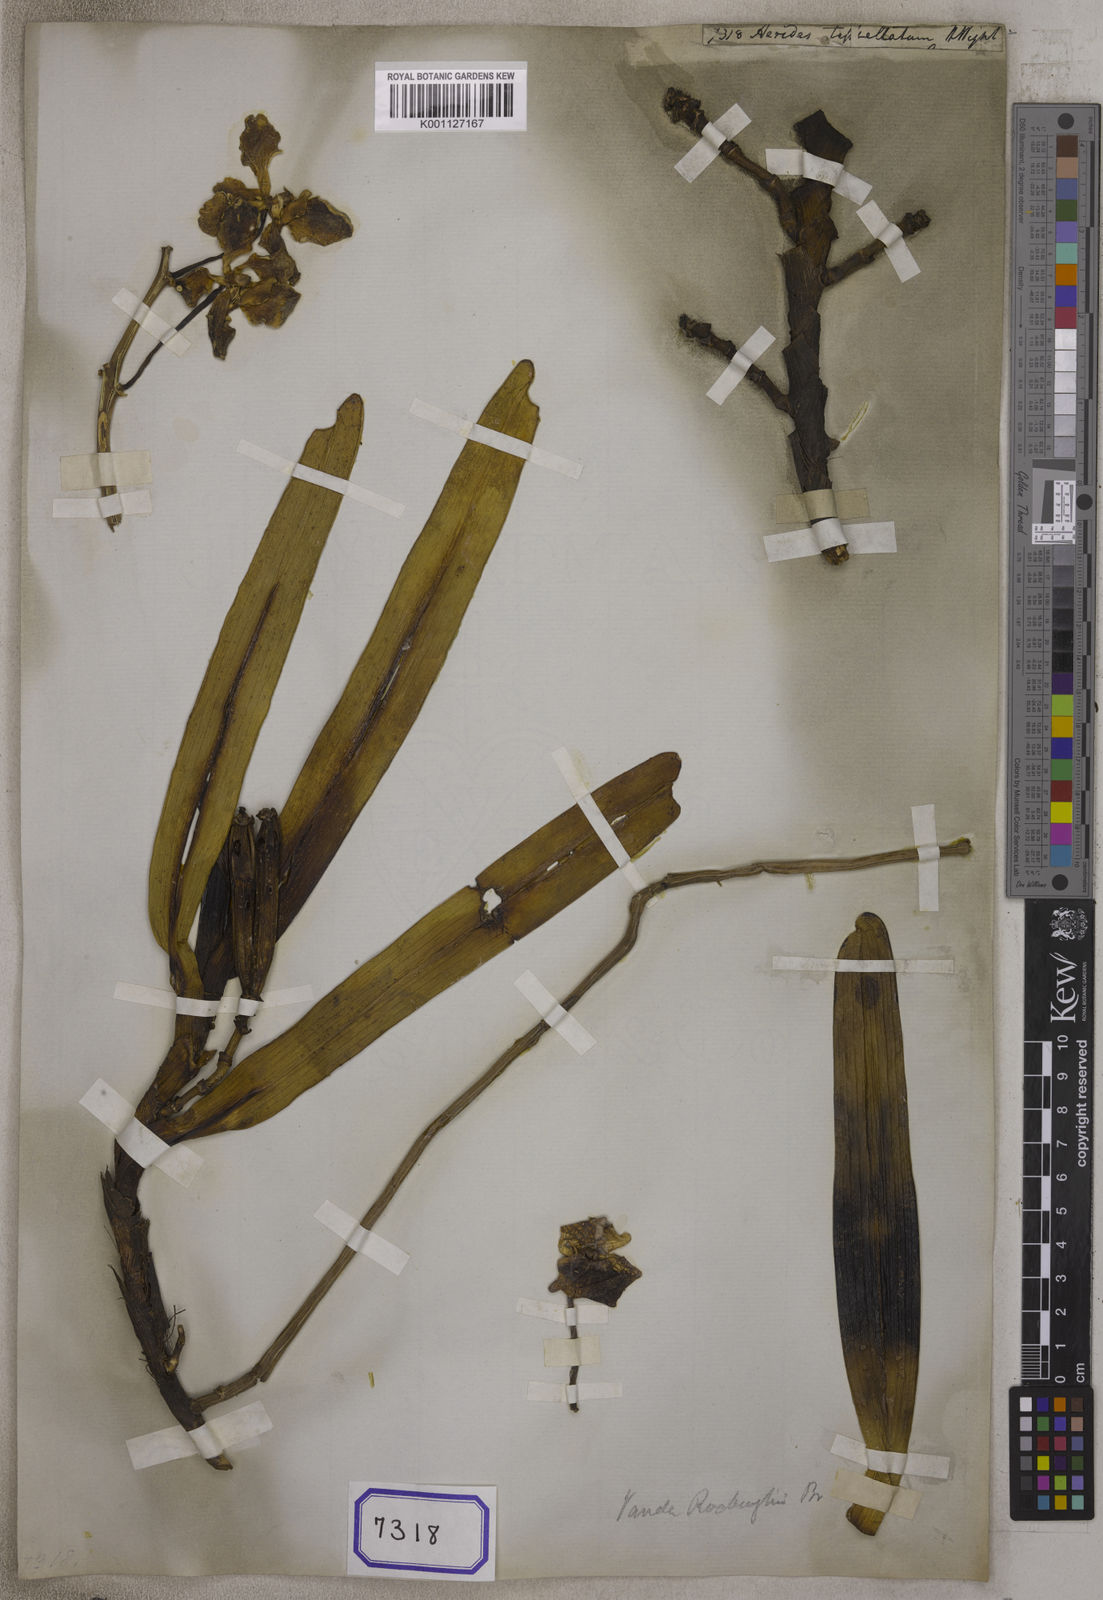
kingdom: Plantae
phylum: Tracheophyta
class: Liliopsida
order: Asparagales
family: Orchidaceae
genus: Aerides
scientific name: Aerides
